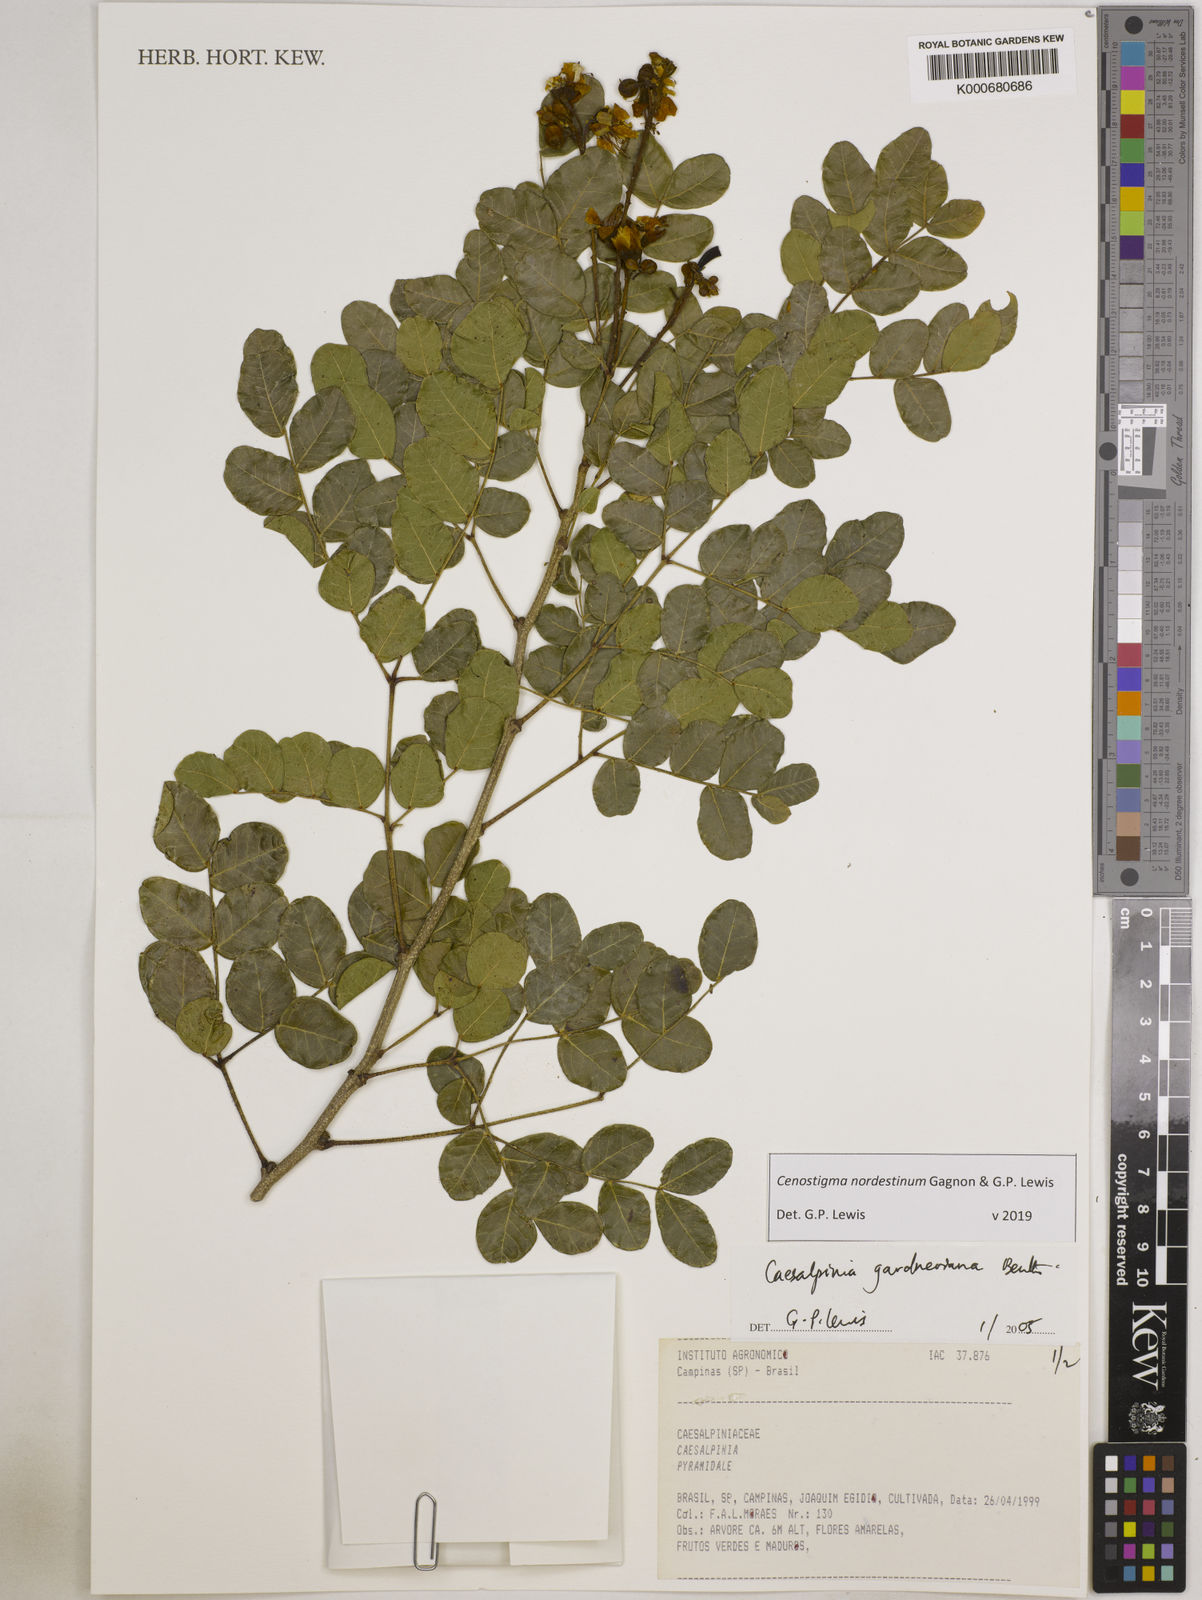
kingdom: Plantae
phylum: Tracheophyta
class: Magnoliopsida
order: Fabales
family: Fabaceae
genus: Cenostigma
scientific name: Cenostigma nordestinum
